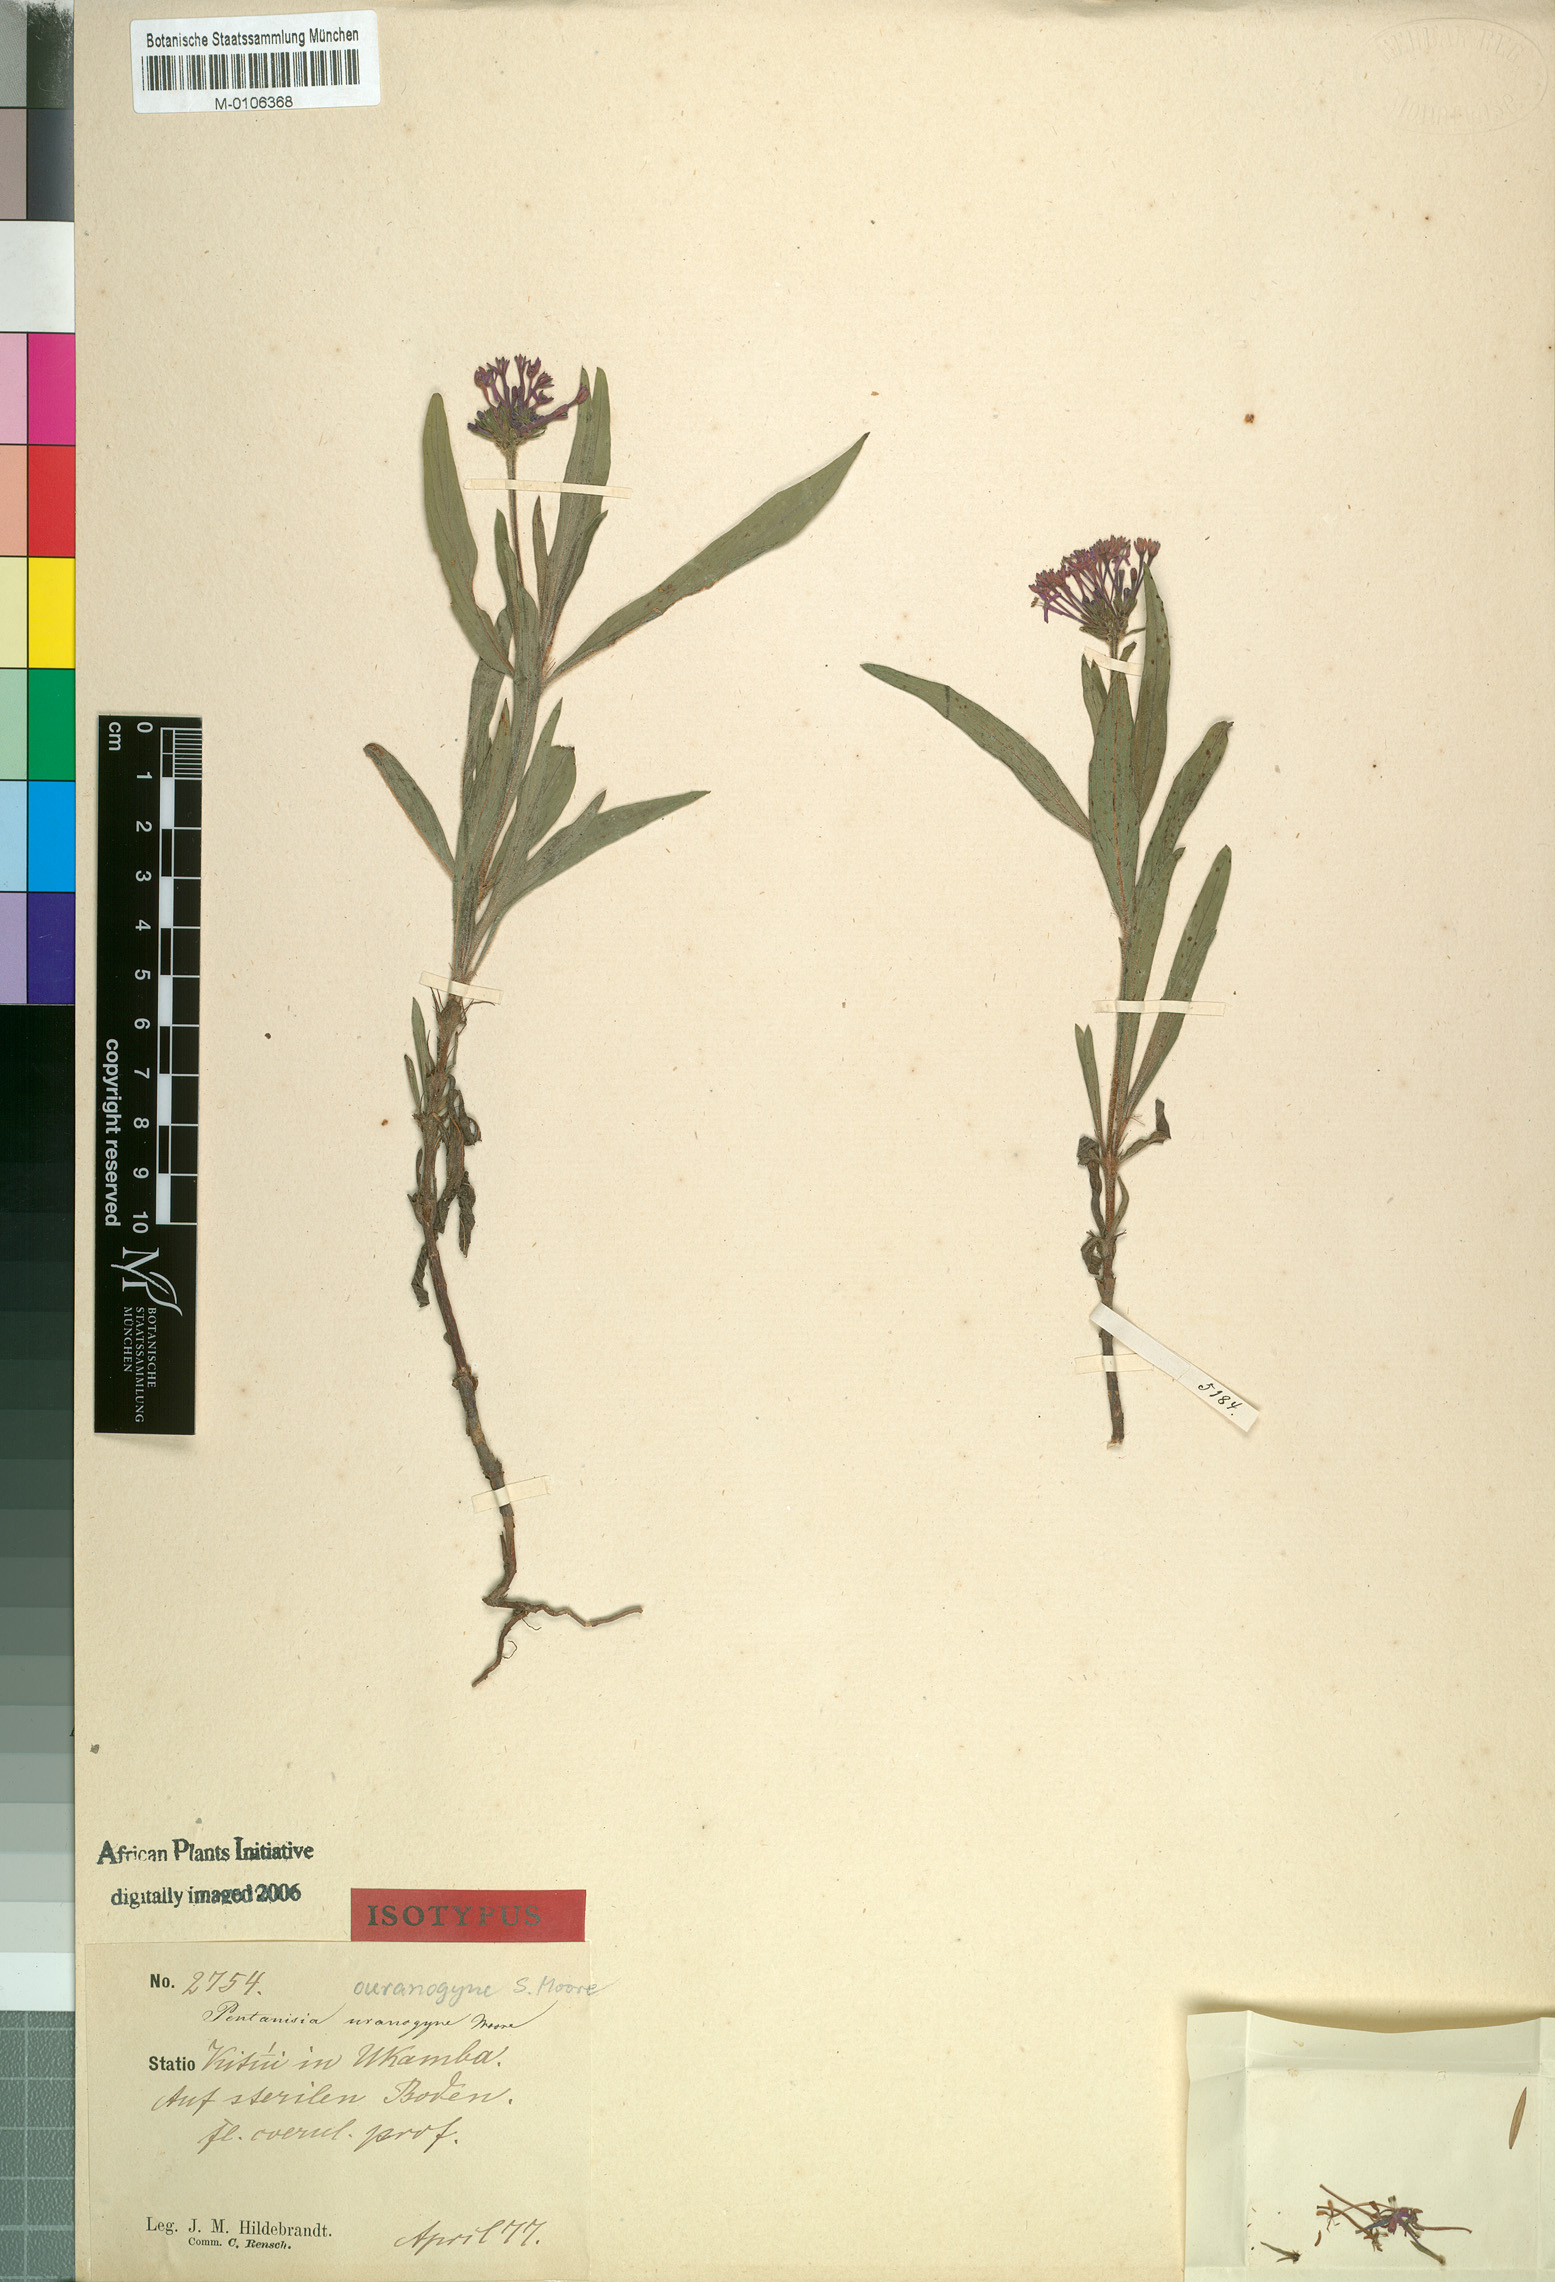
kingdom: Plantae
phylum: Tracheophyta
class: Magnoliopsida
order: Gentianales
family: Rubiaceae
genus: Pentanisia
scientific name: Pentanisia ouranogyne
